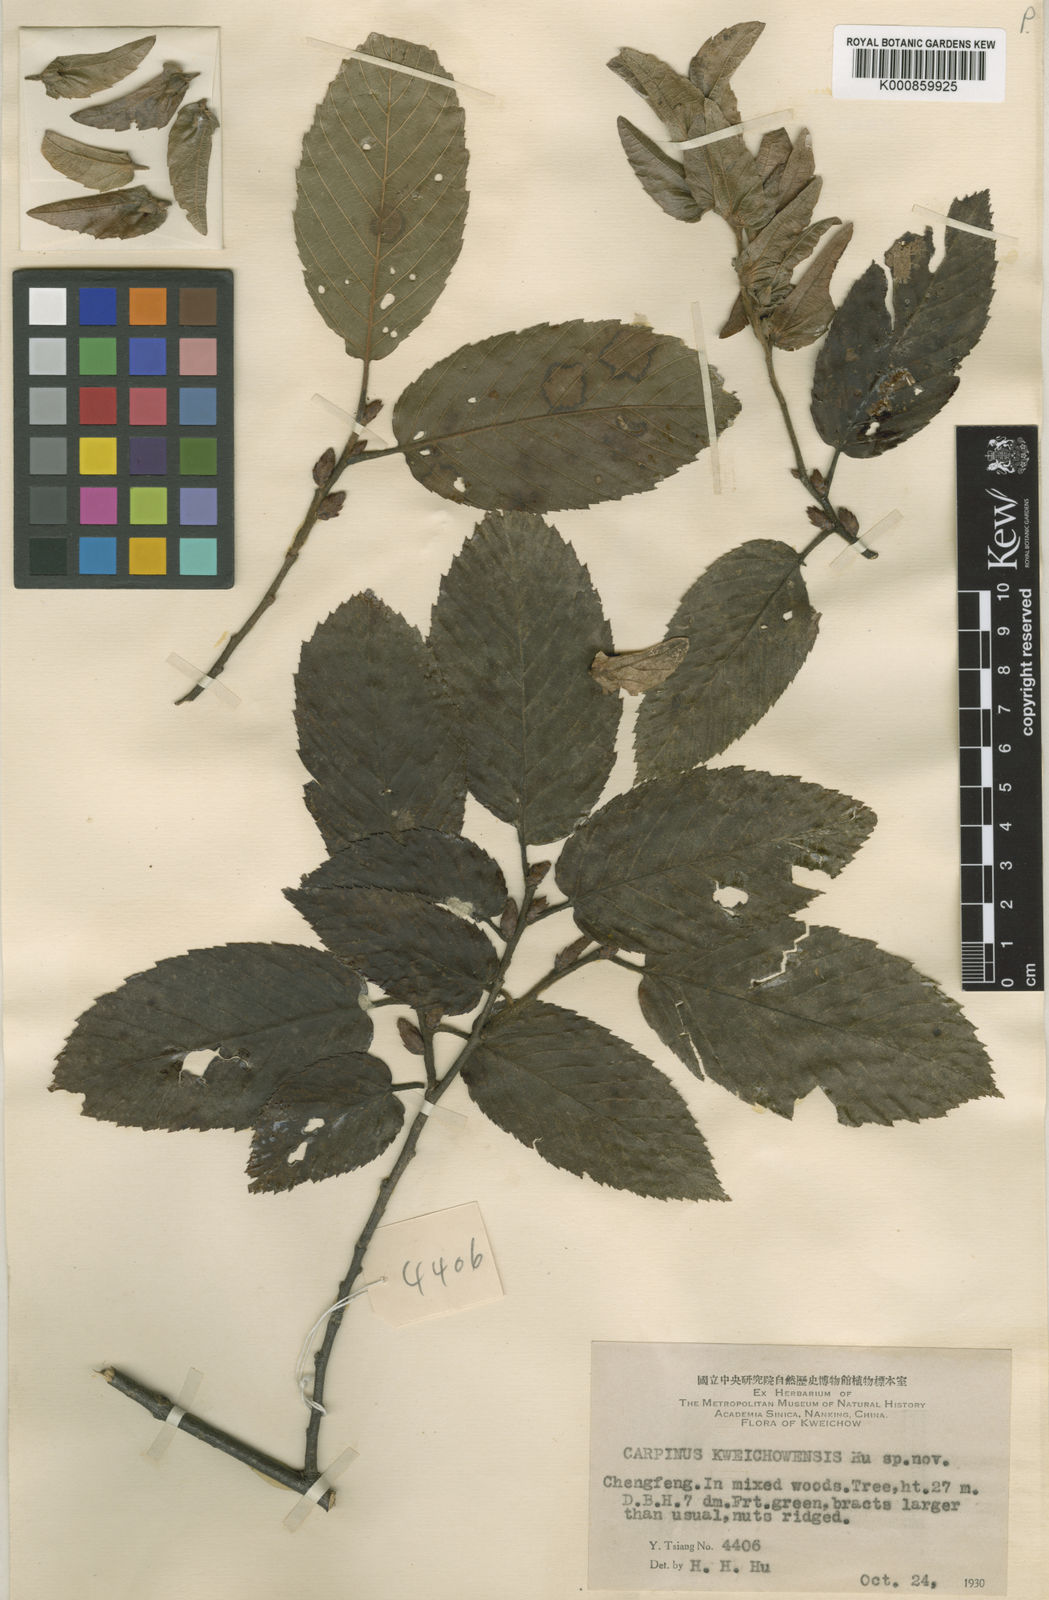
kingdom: Plantae
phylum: Tracheophyta
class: Magnoliopsida
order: Fagales
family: Betulaceae
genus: Carpinus
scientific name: Carpinus kweichowensis
